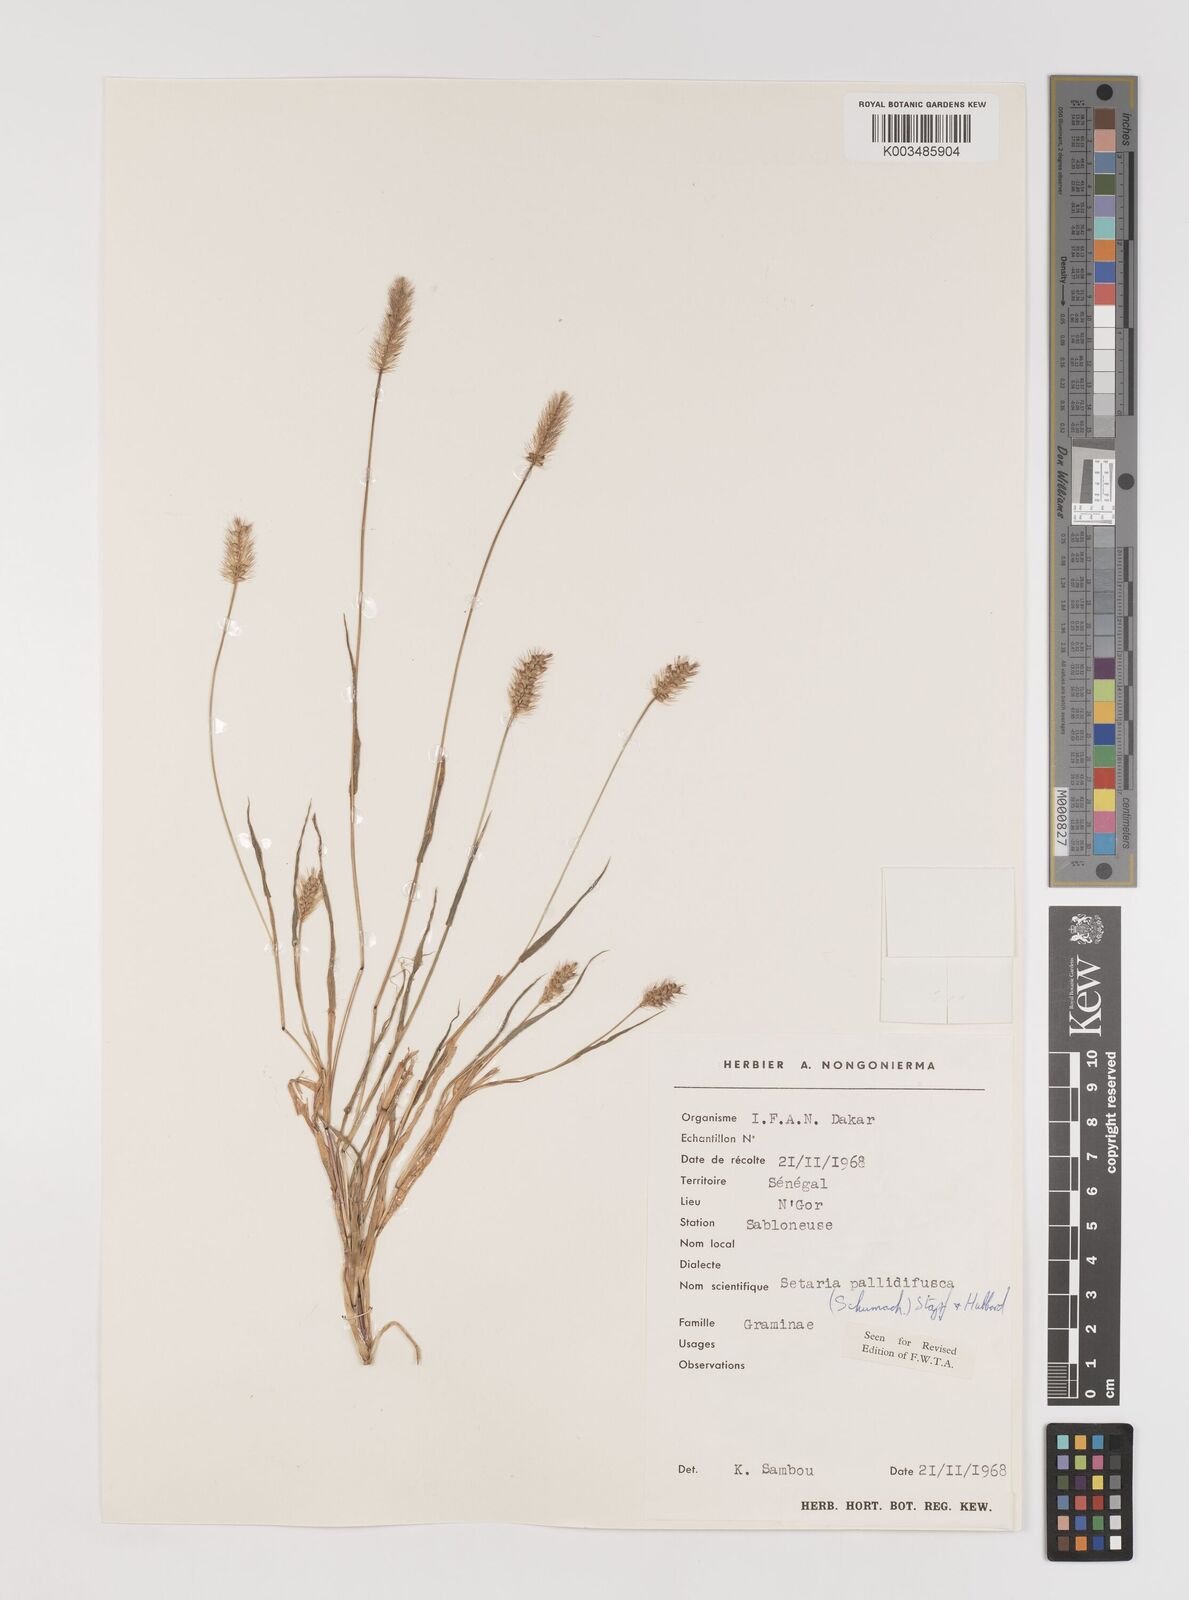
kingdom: Plantae
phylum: Tracheophyta
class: Liliopsida
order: Poales
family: Poaceae
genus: Setaria
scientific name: Setaria pumila
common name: Yellow bristle-grass
